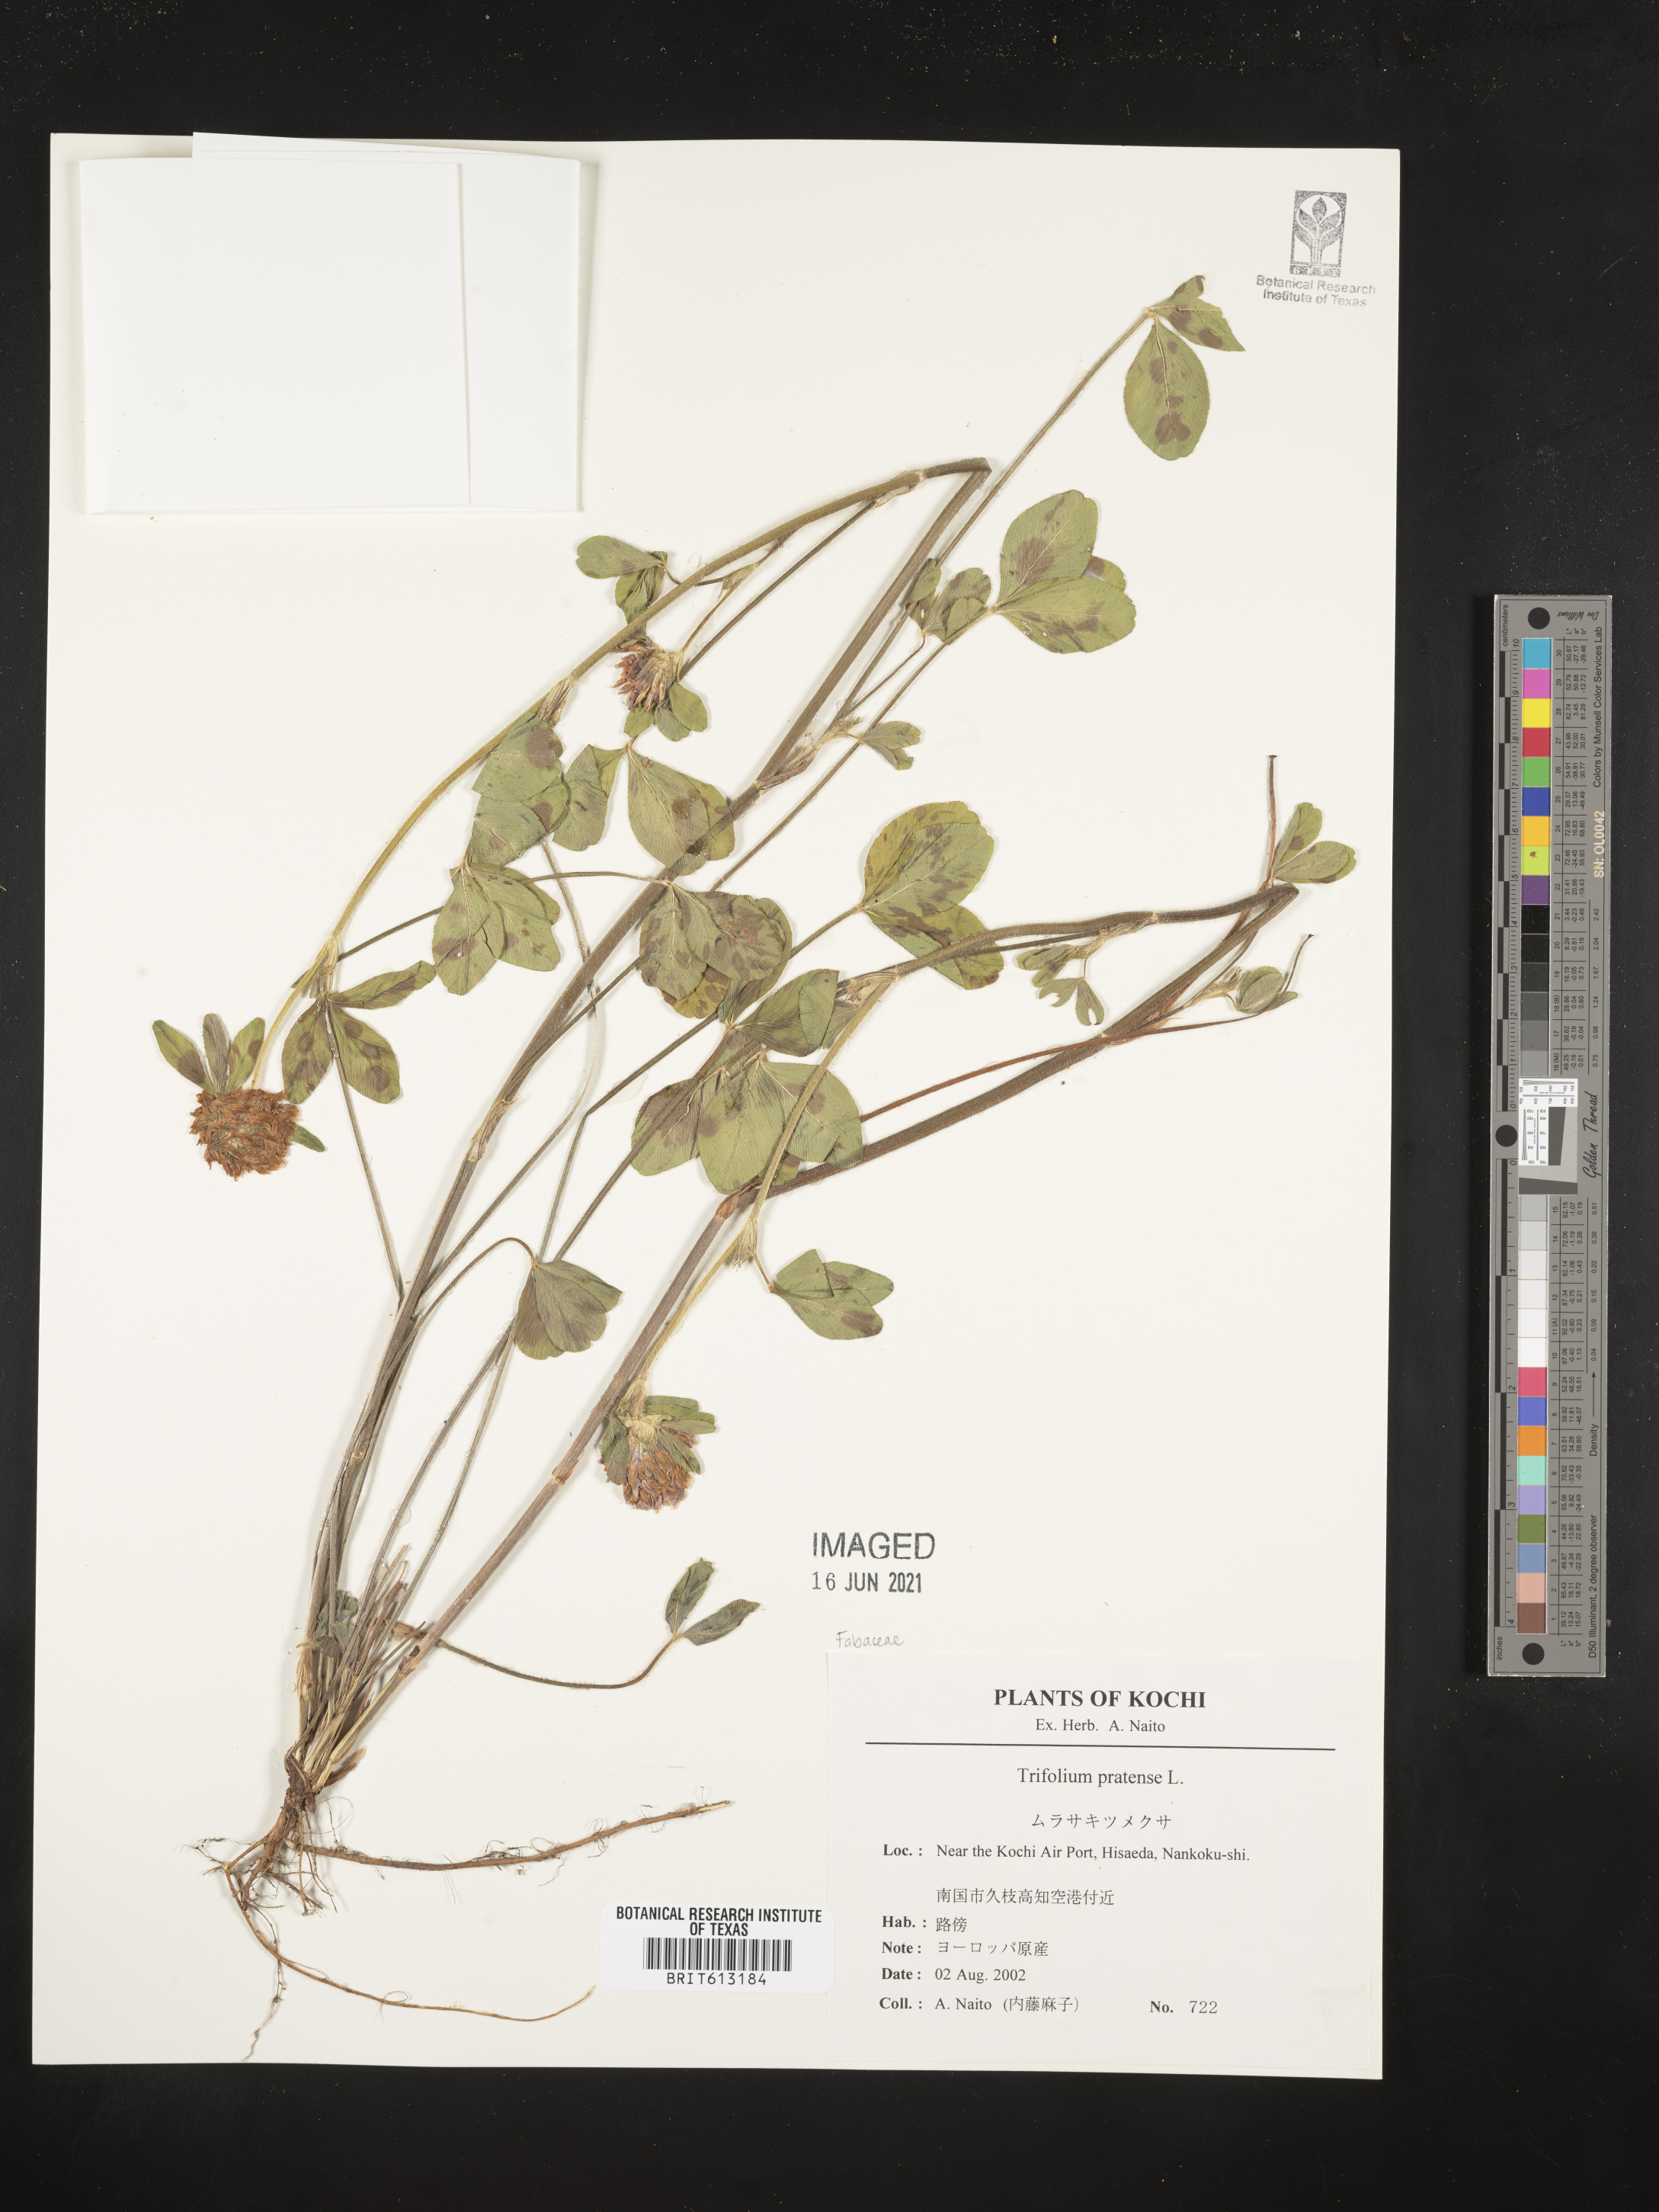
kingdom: Plantae
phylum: Tracheophyta
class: Magnoliopsida
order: Fabales
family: Fabaceae
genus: Trifolium
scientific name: Trifolium pratense
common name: Red clover
